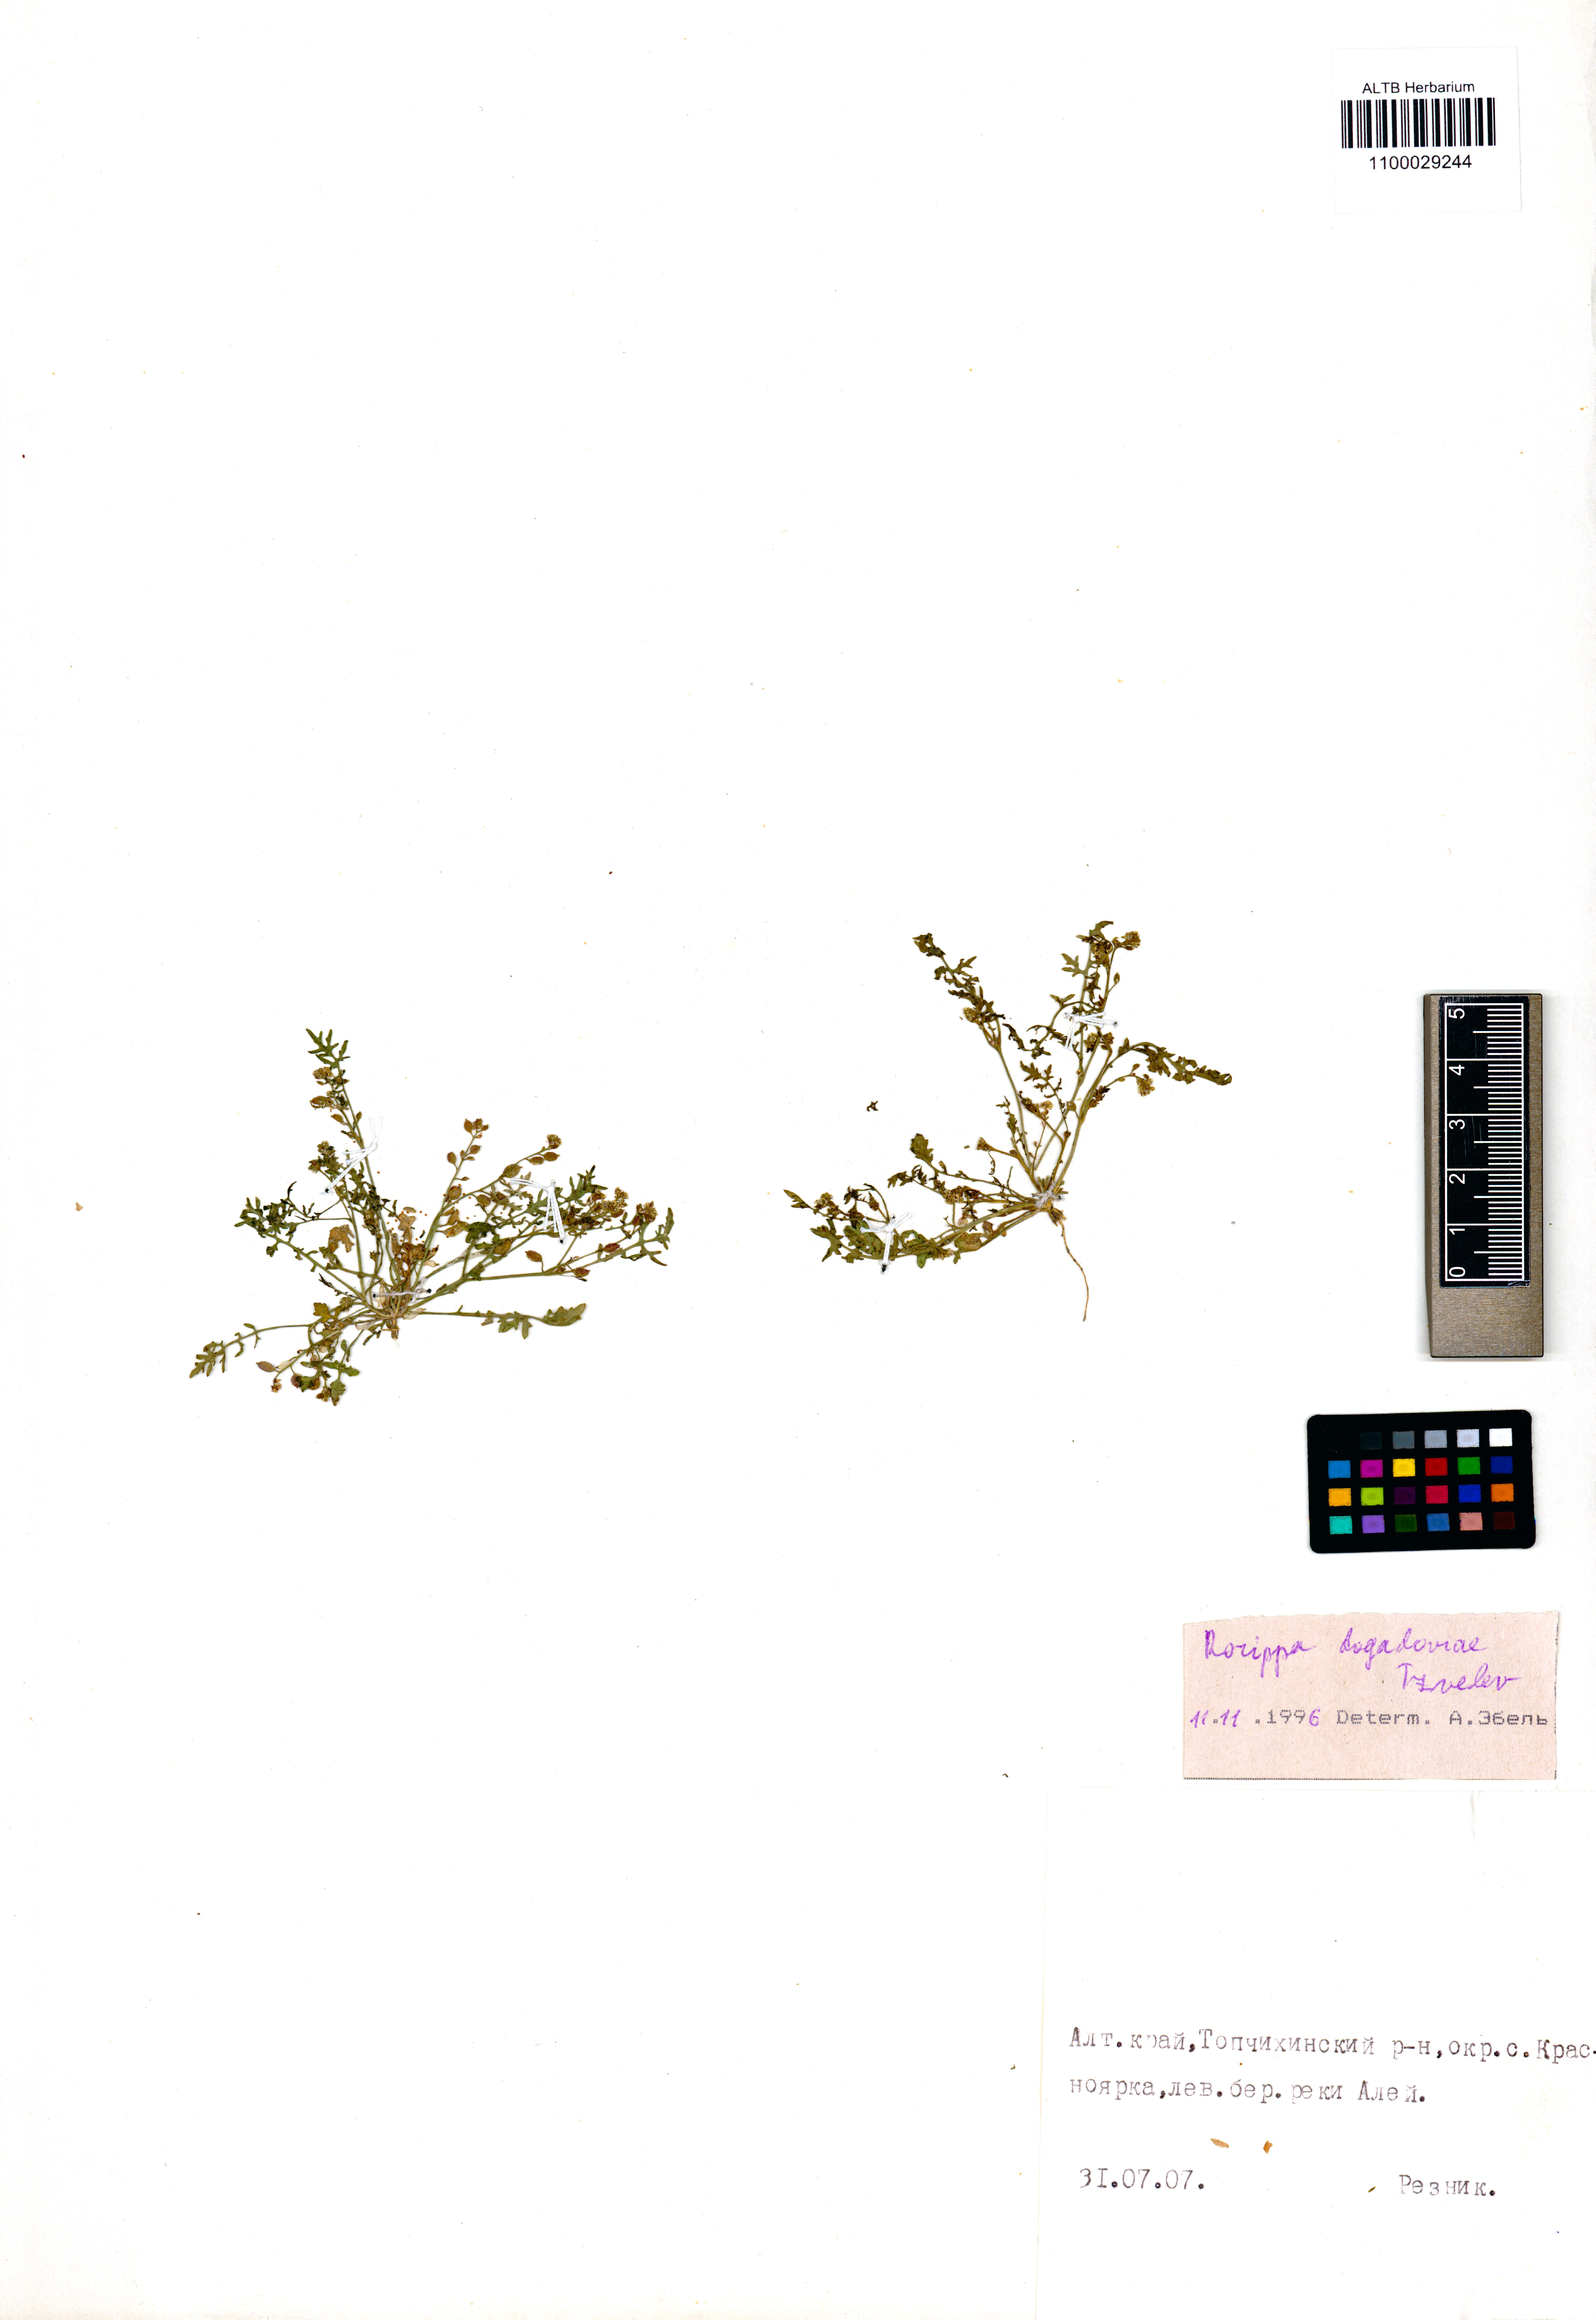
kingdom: Plantae
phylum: Tracheophyta
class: Magnoliopsida
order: Brassicales
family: Brassicaceae
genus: Rorippa
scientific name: Rorippa islandica
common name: Marsh cress
